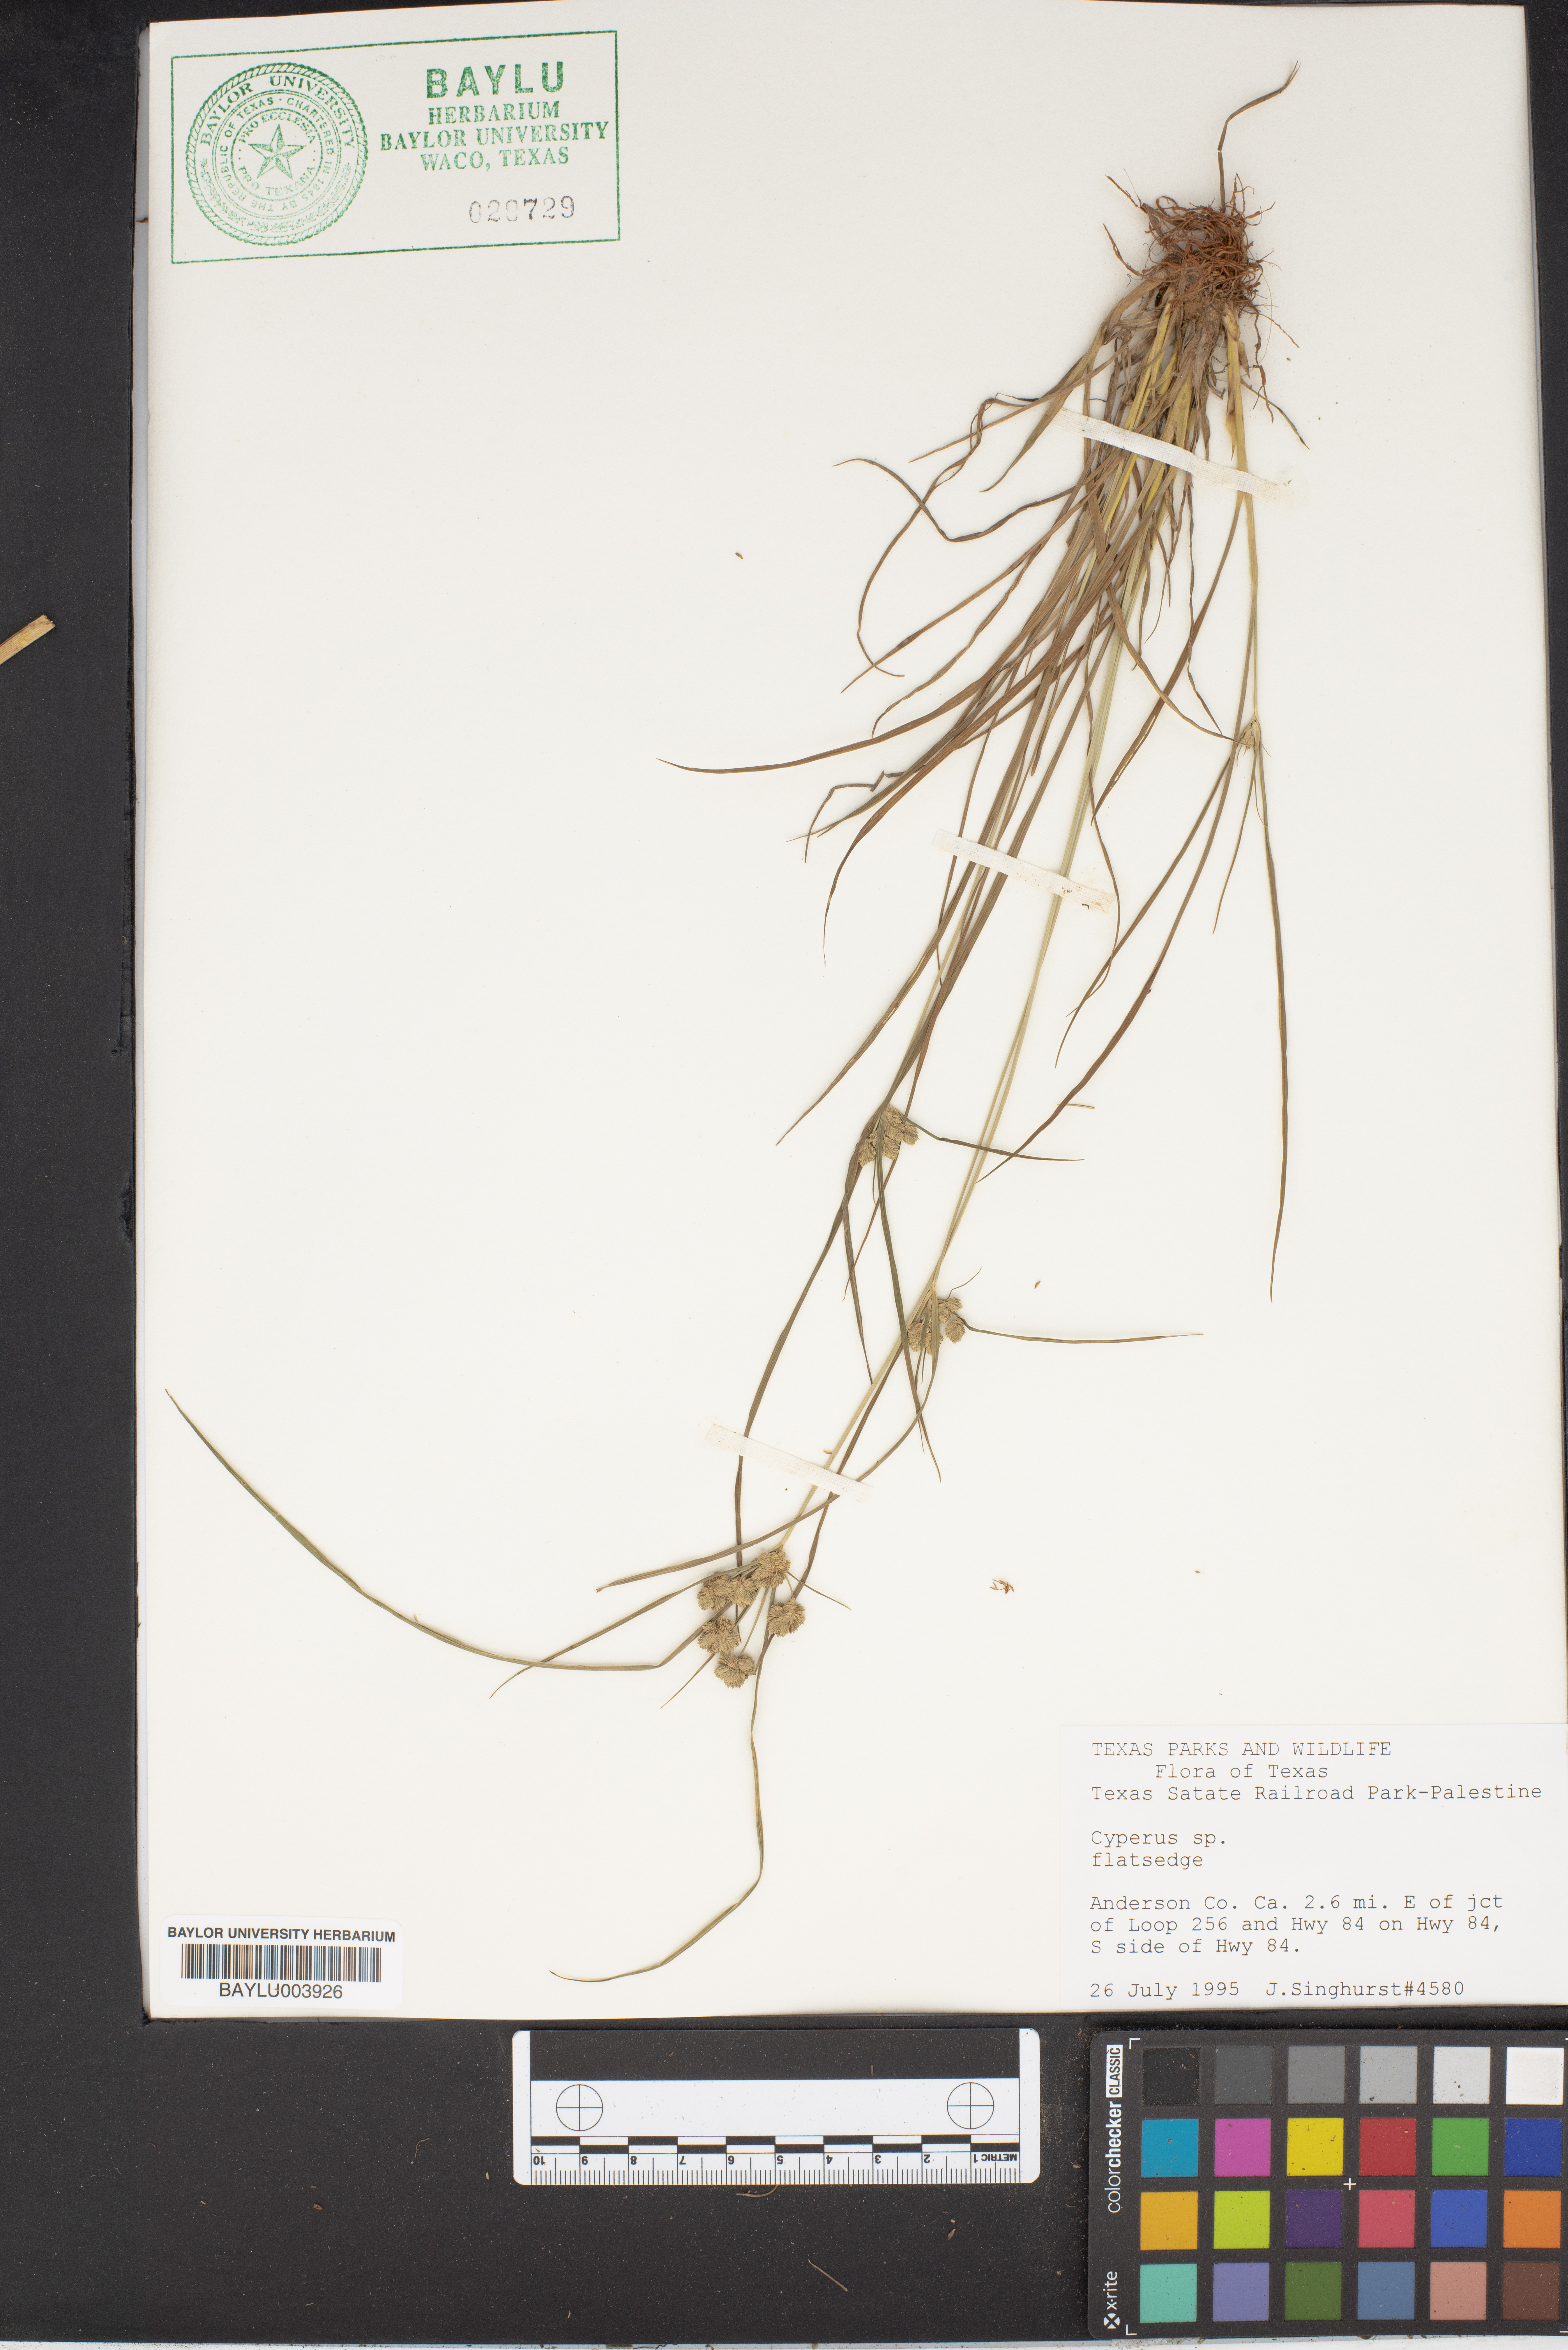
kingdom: Plantae
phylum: Tracheophyta
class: Liliopsida
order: Poales
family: Cyperaceae
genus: Cyperus
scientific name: Cyperus
